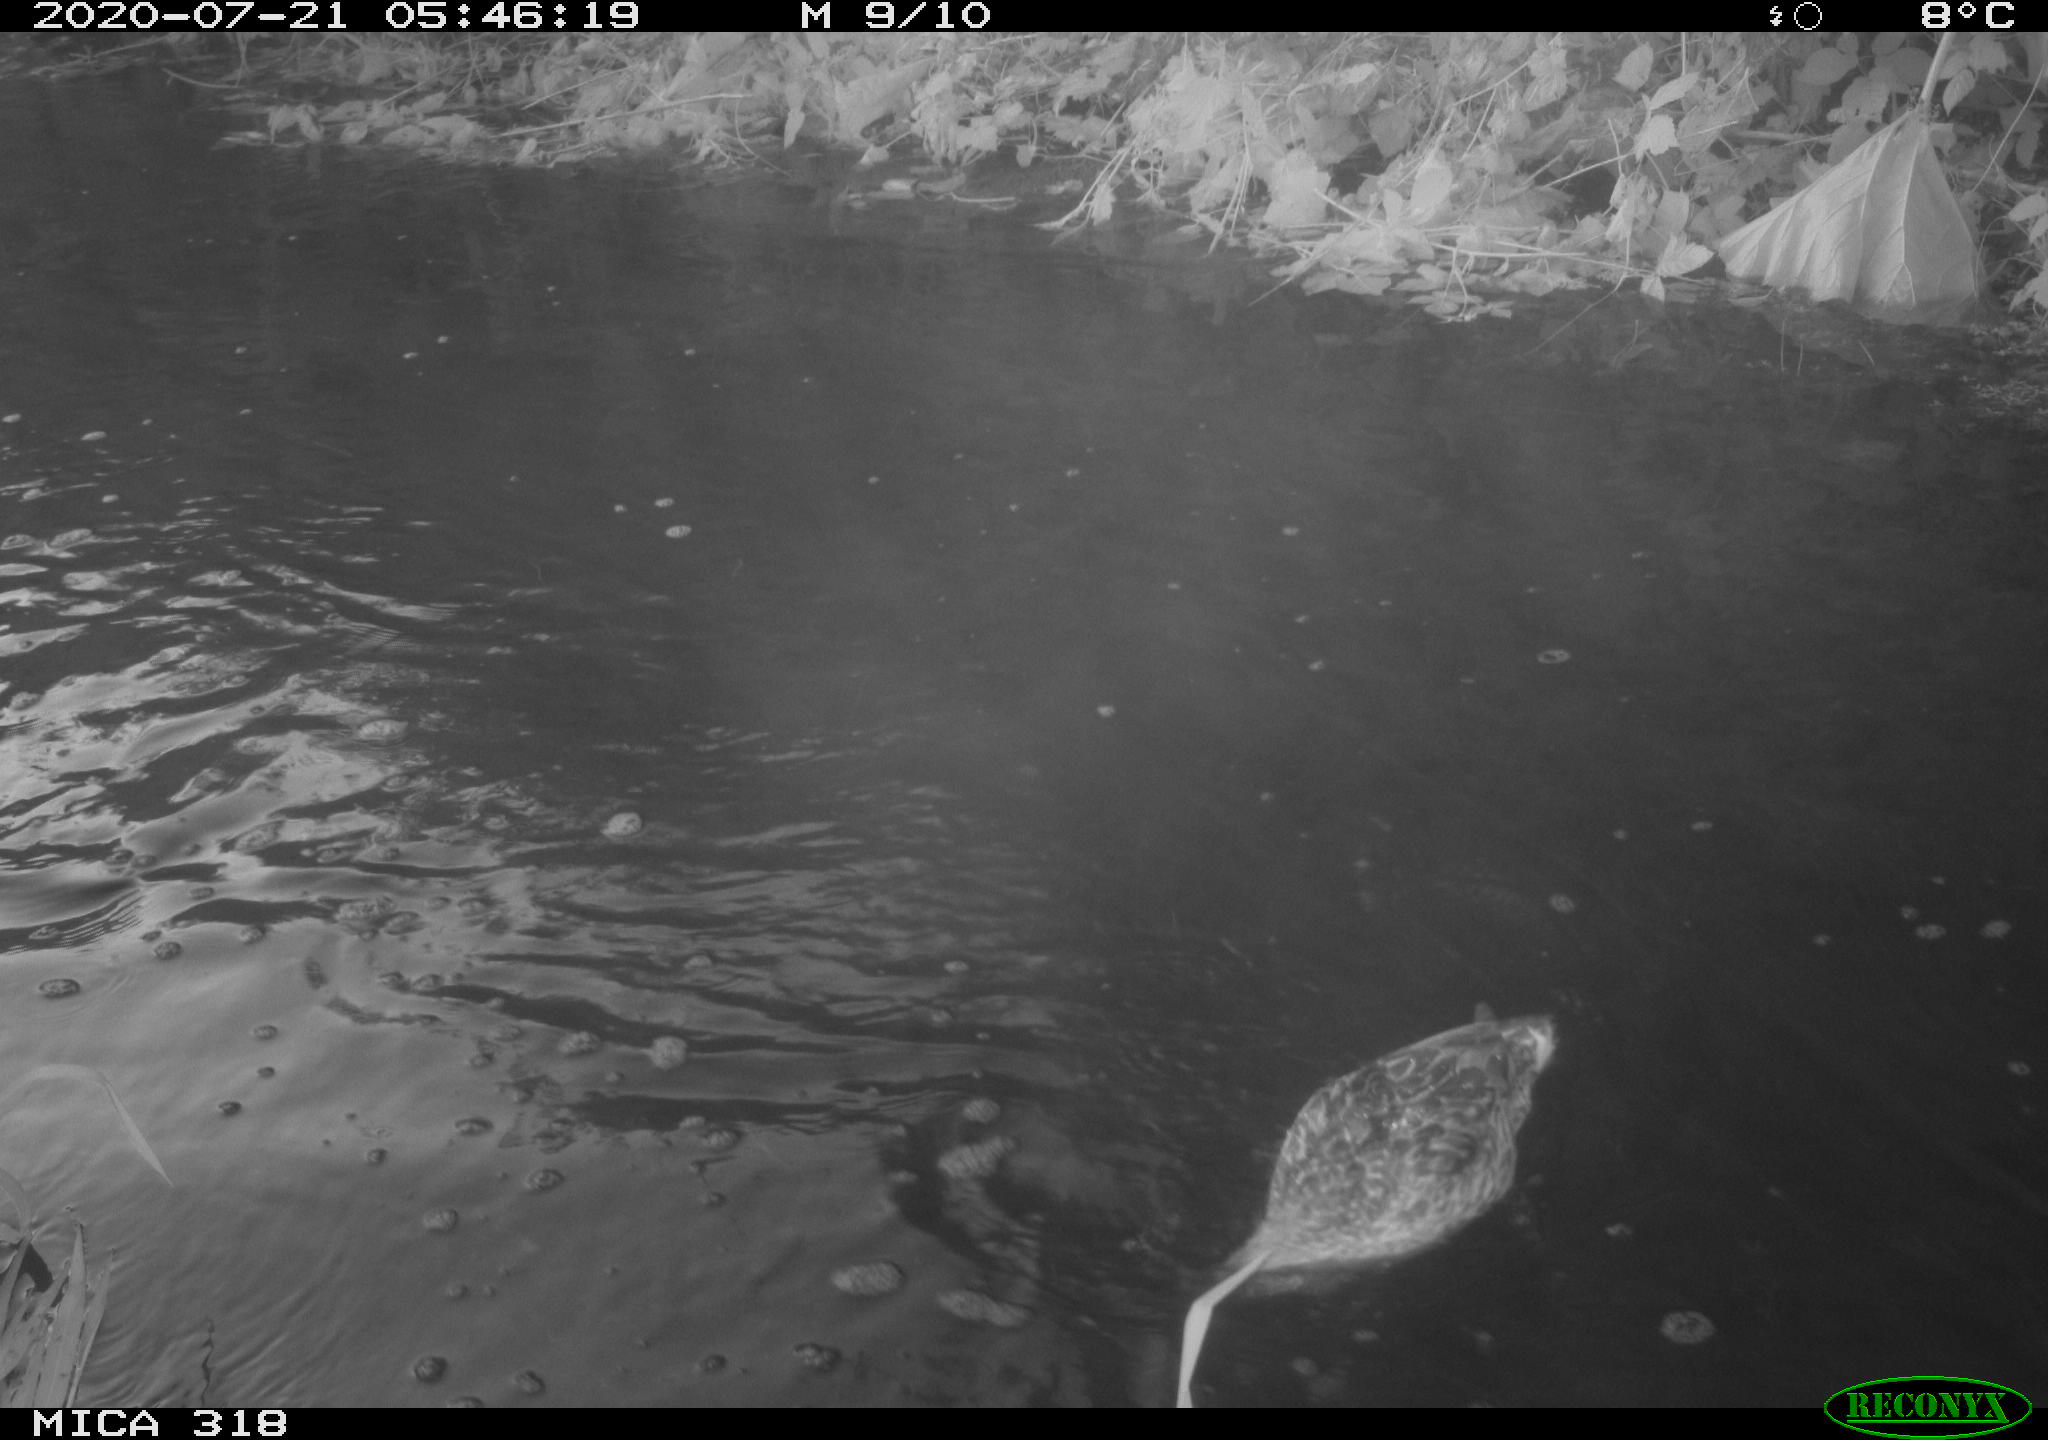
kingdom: Animalia
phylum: Chordata
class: Aves
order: Gruiformes
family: Rallidae
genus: Gallinula
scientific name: Gallinula chloropus
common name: Common moorhen
